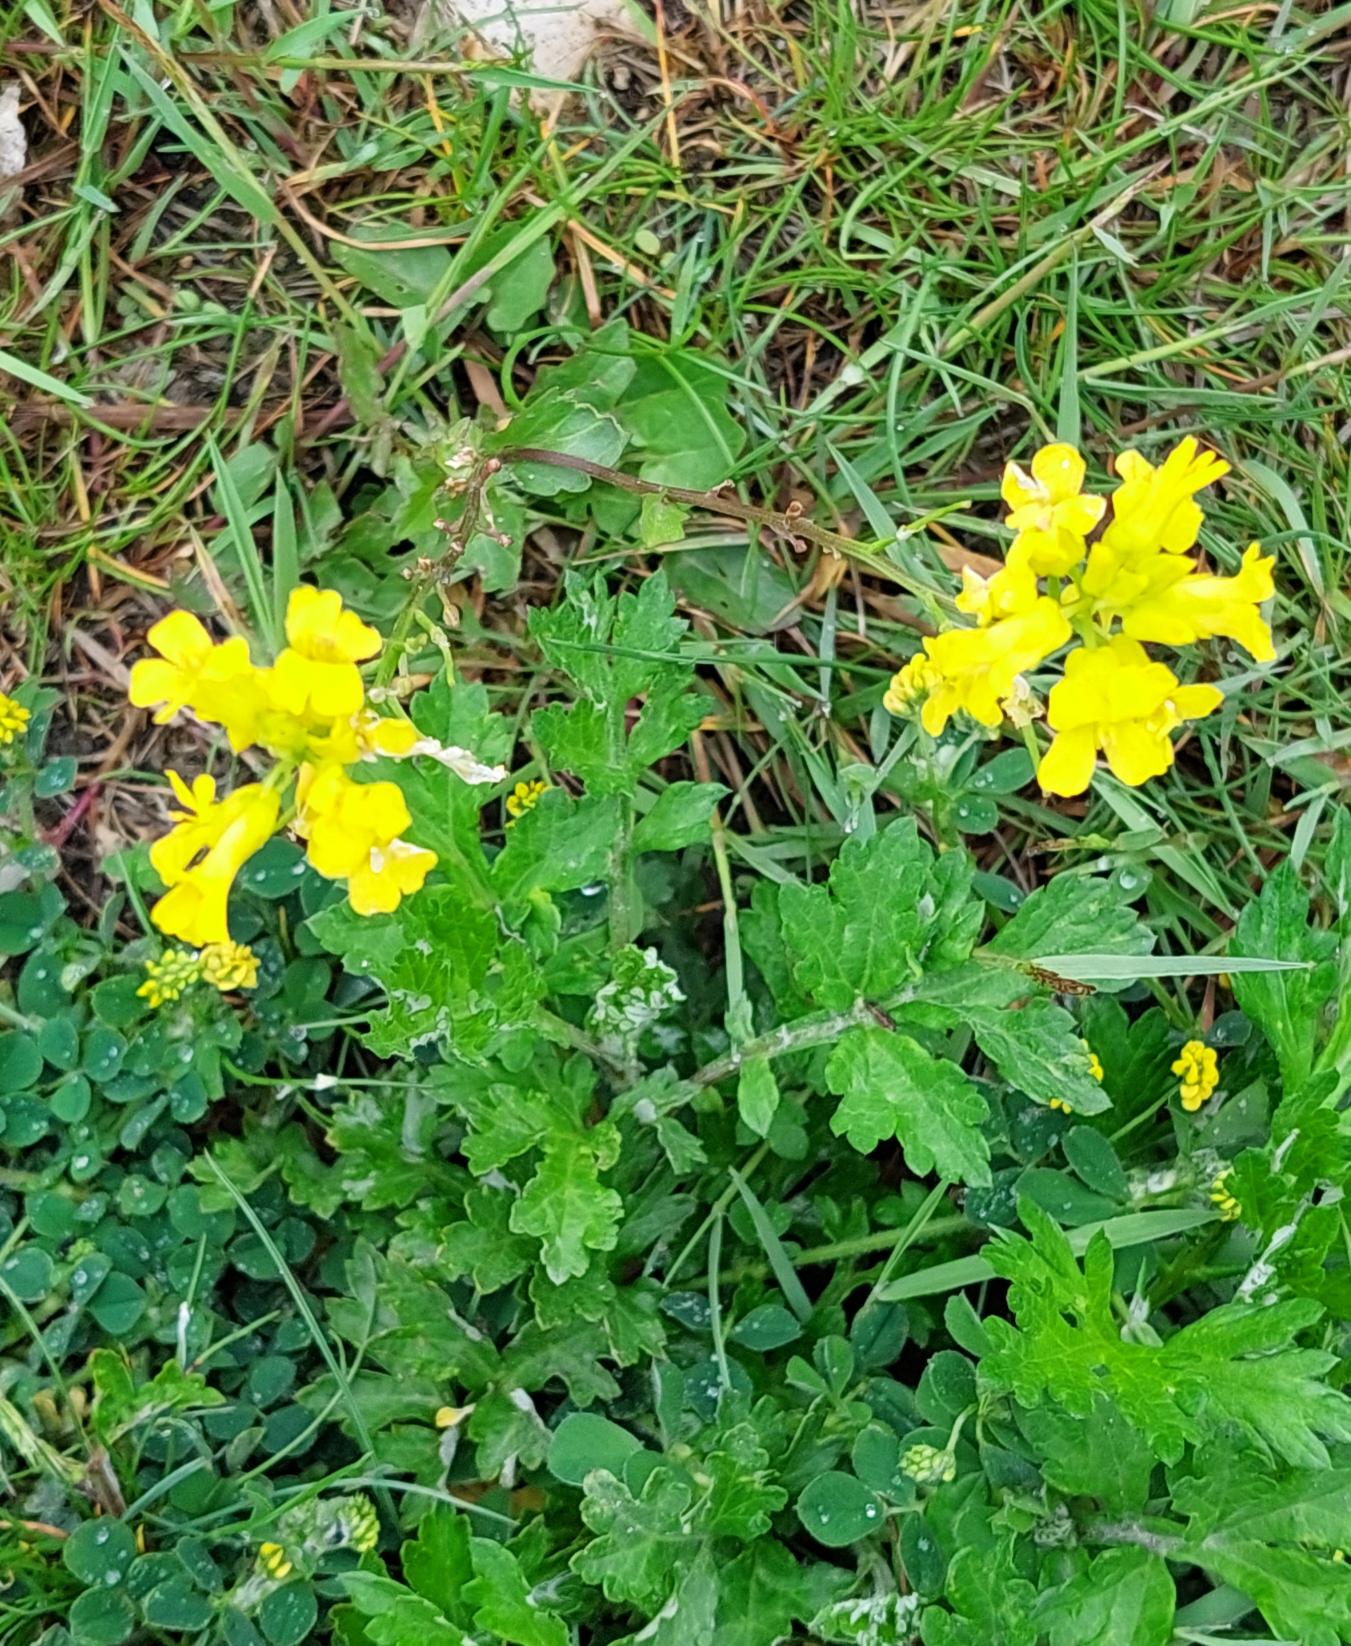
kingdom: Plantae
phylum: Tracheophyta
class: Magnoliopsida
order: Brassicales
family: Brassicaceae
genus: Barbarea
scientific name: Barbarea
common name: Vinterkarseslægten
